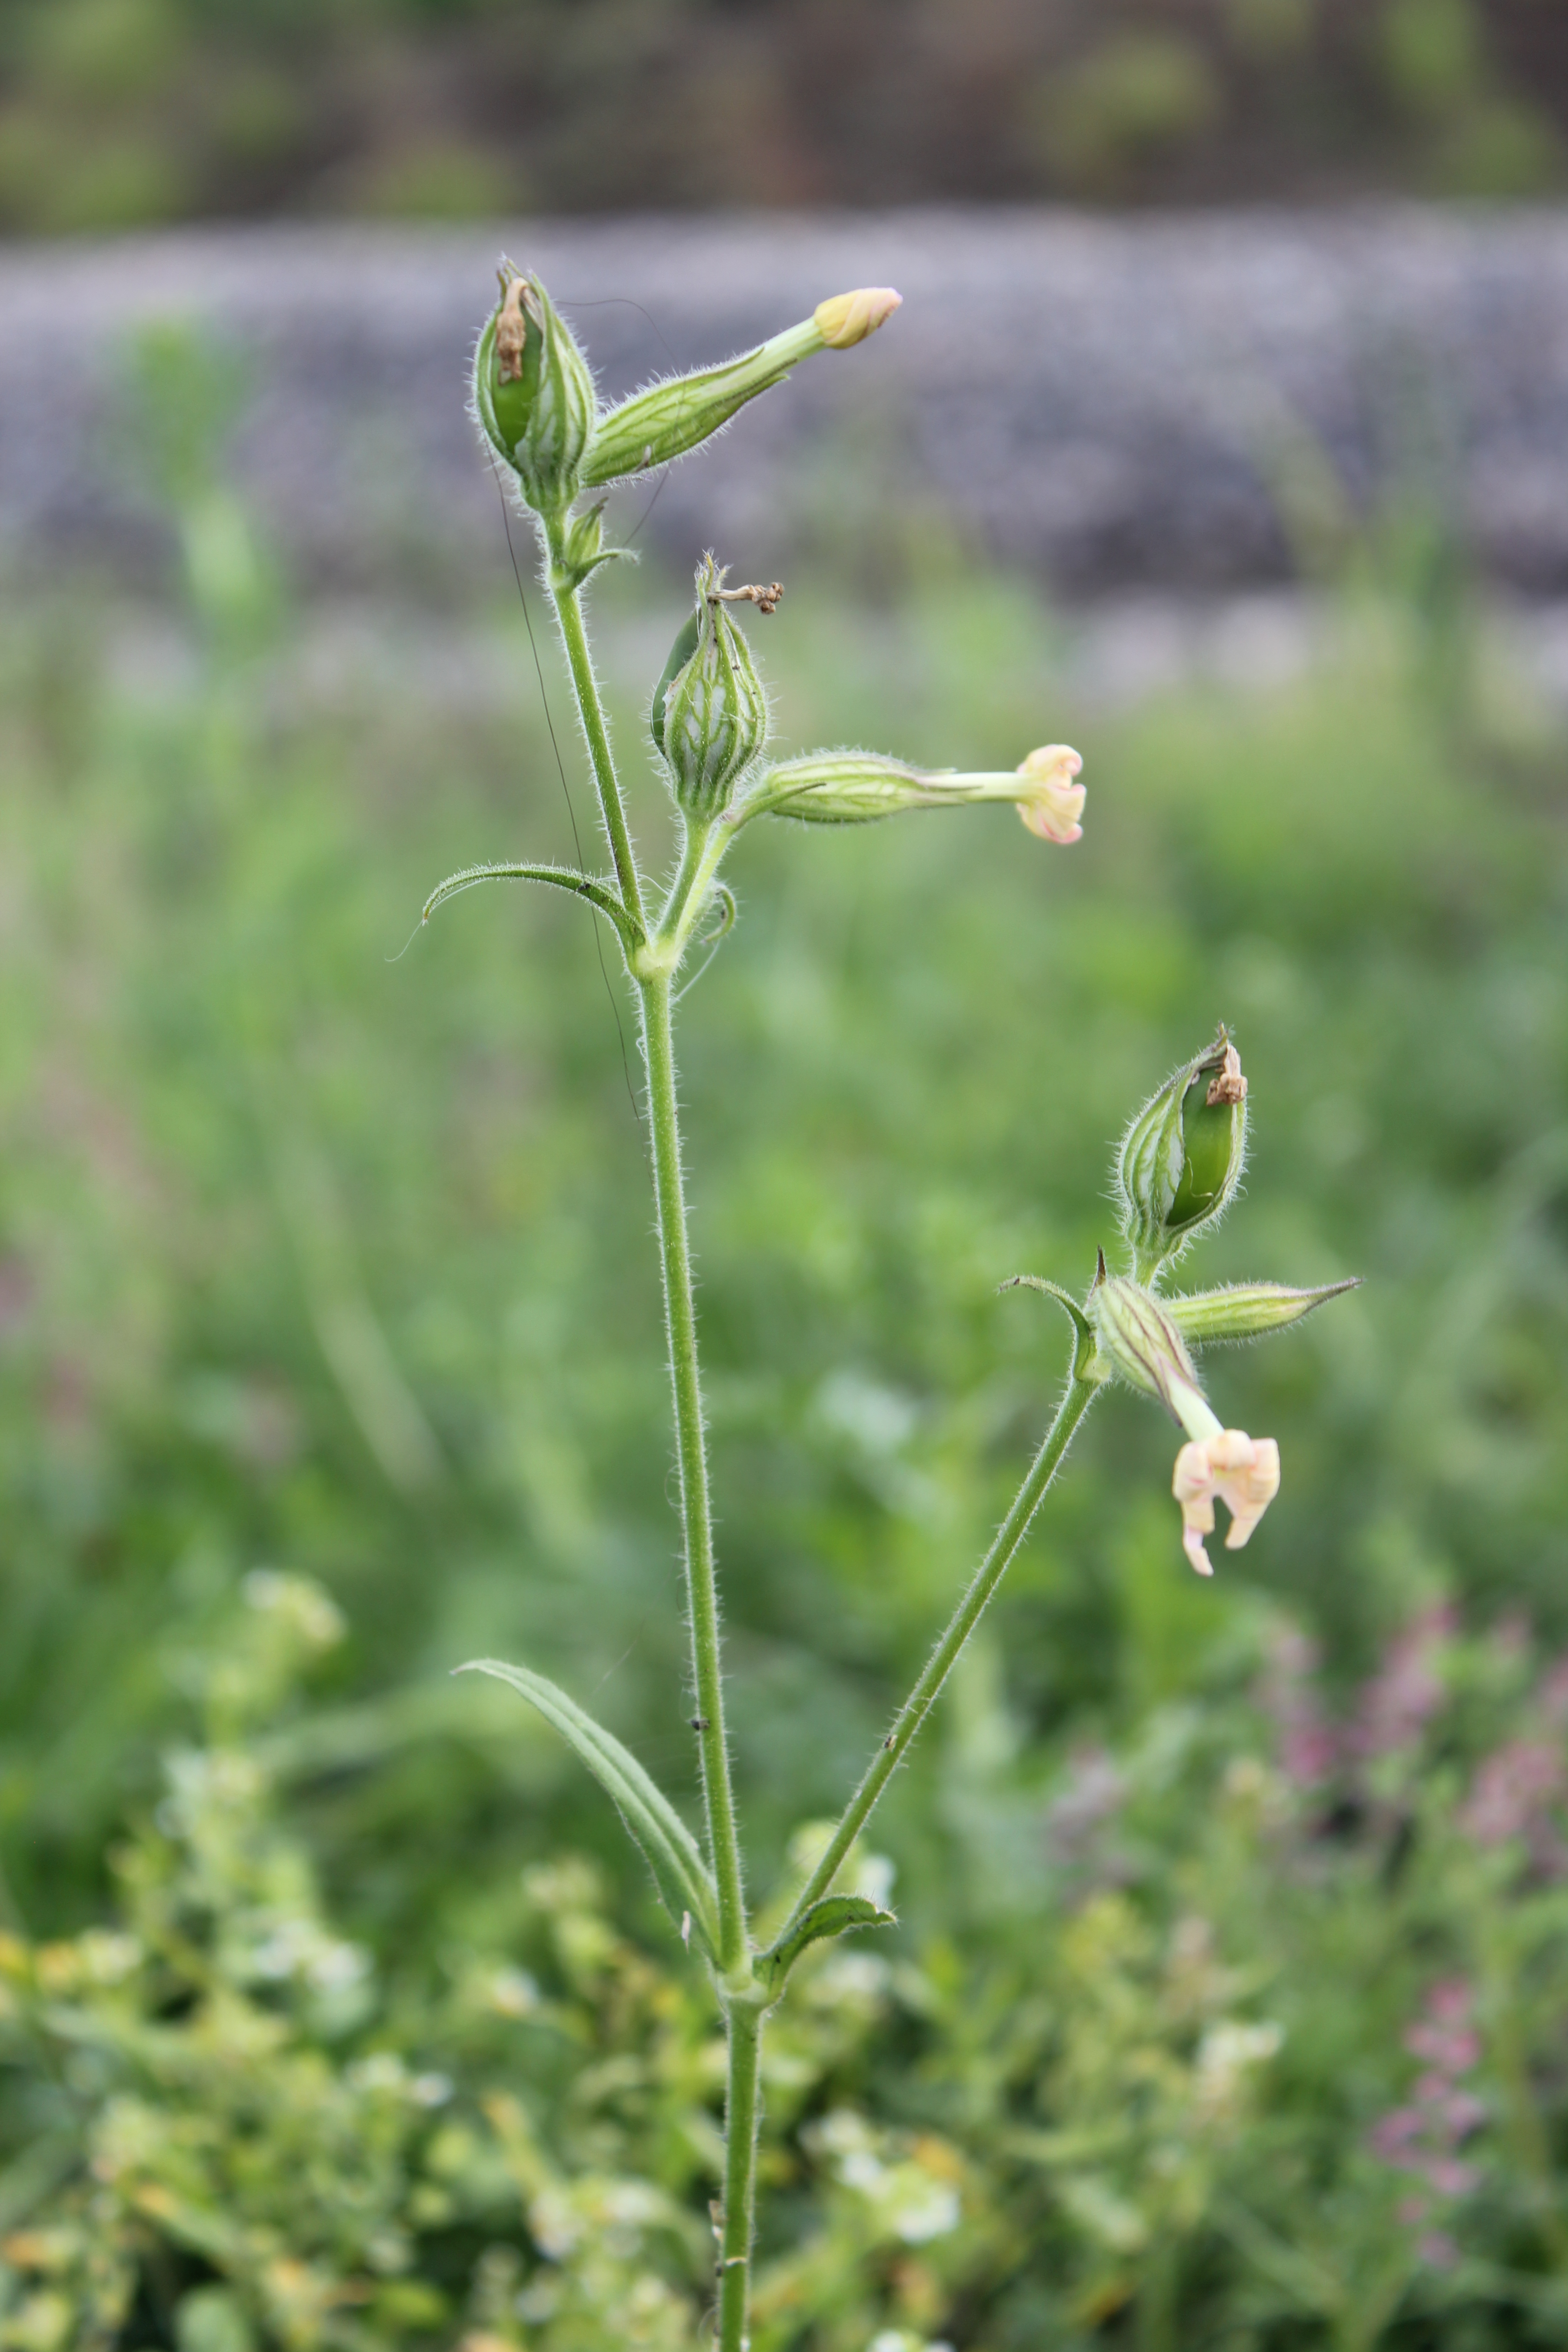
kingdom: Plantae
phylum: Tracheophyta
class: Magnoliopsida
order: Caryophyllales
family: Caryophyllaceae
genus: Silene
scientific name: Silene noctiflora
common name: Night-flowering catchfly
